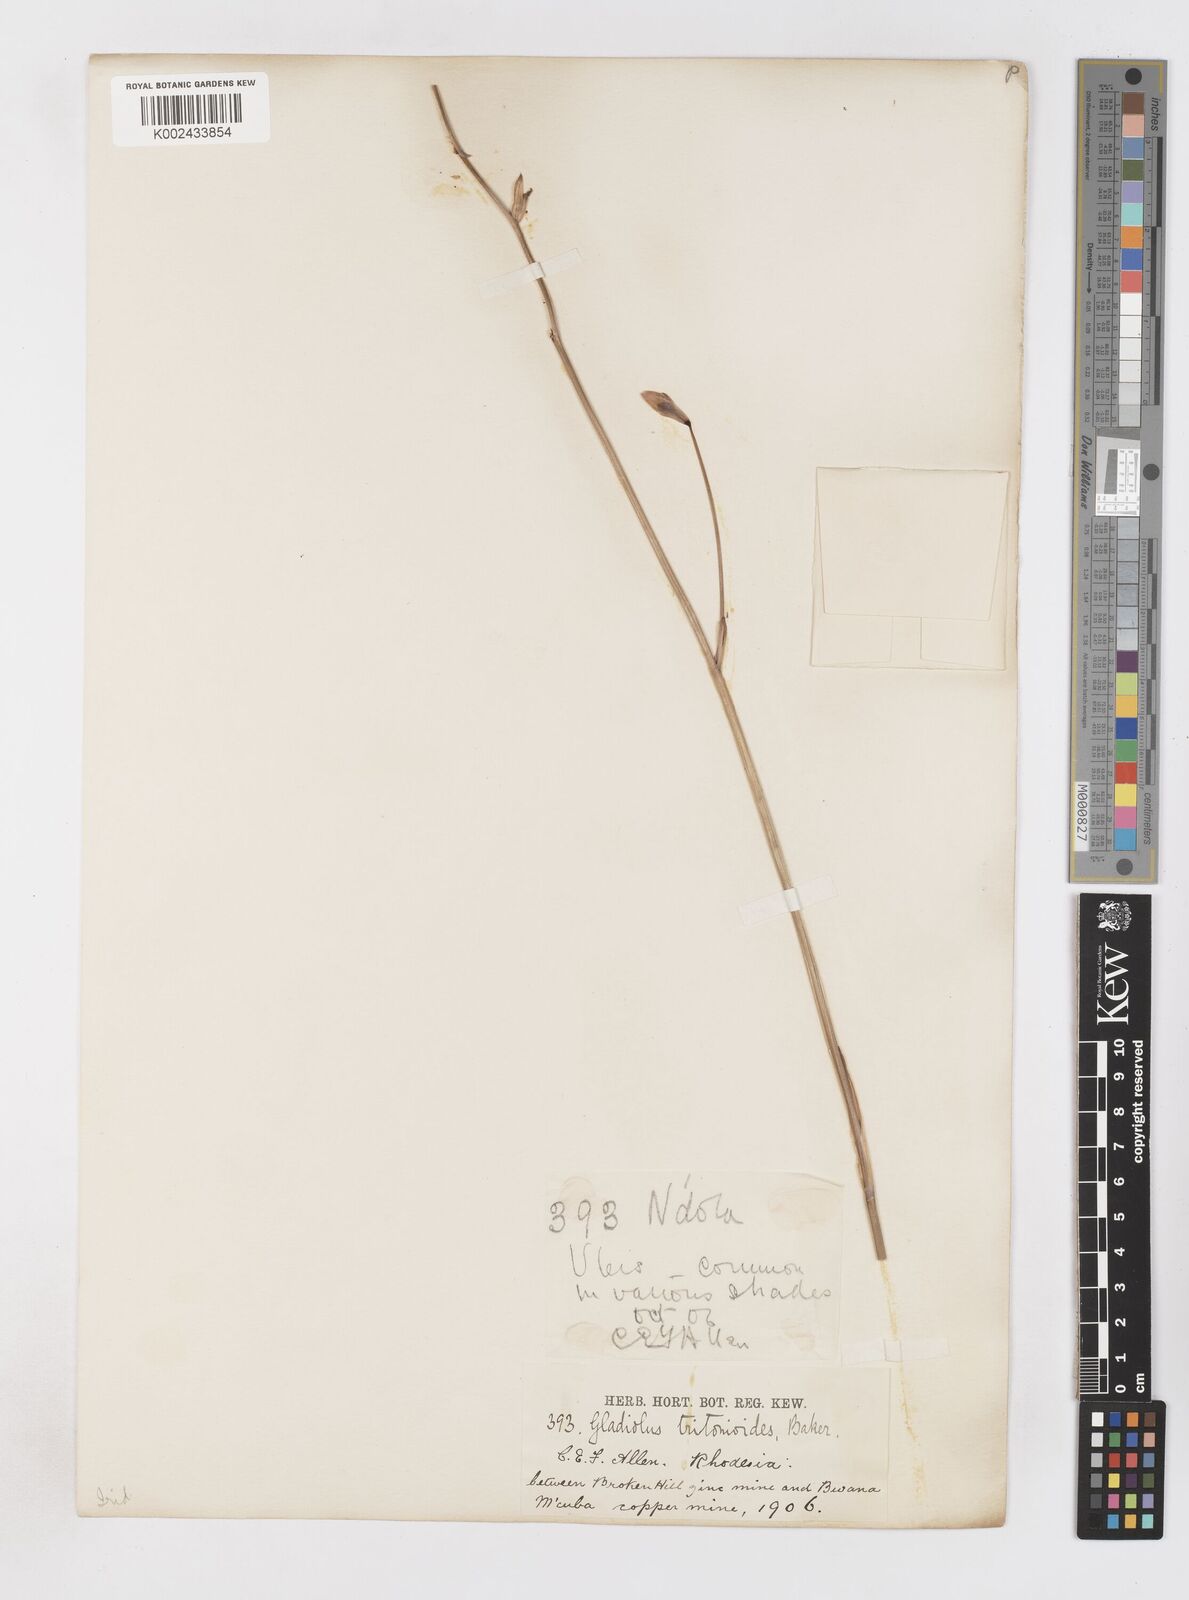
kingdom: Plantae
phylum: Tracheophyta
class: Liliopsida
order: Asparagales
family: Iridaceae
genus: Gladiolus
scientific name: Gladiolus laxiflorus
